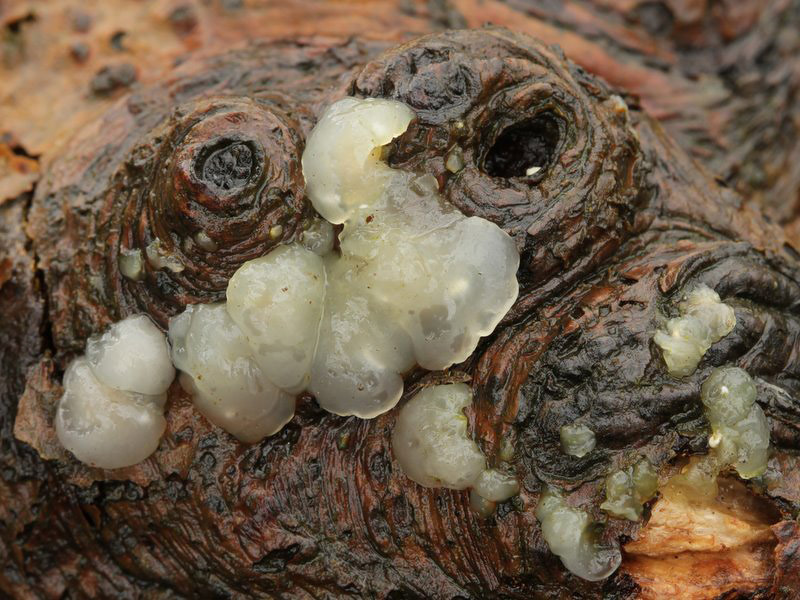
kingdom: Fungi
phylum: Basidiomycota
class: Agaricomycetes
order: Auriculariales
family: Hyaloriaceae
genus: Myxarium
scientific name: Myxarium nucleatum
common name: klar bævretop
